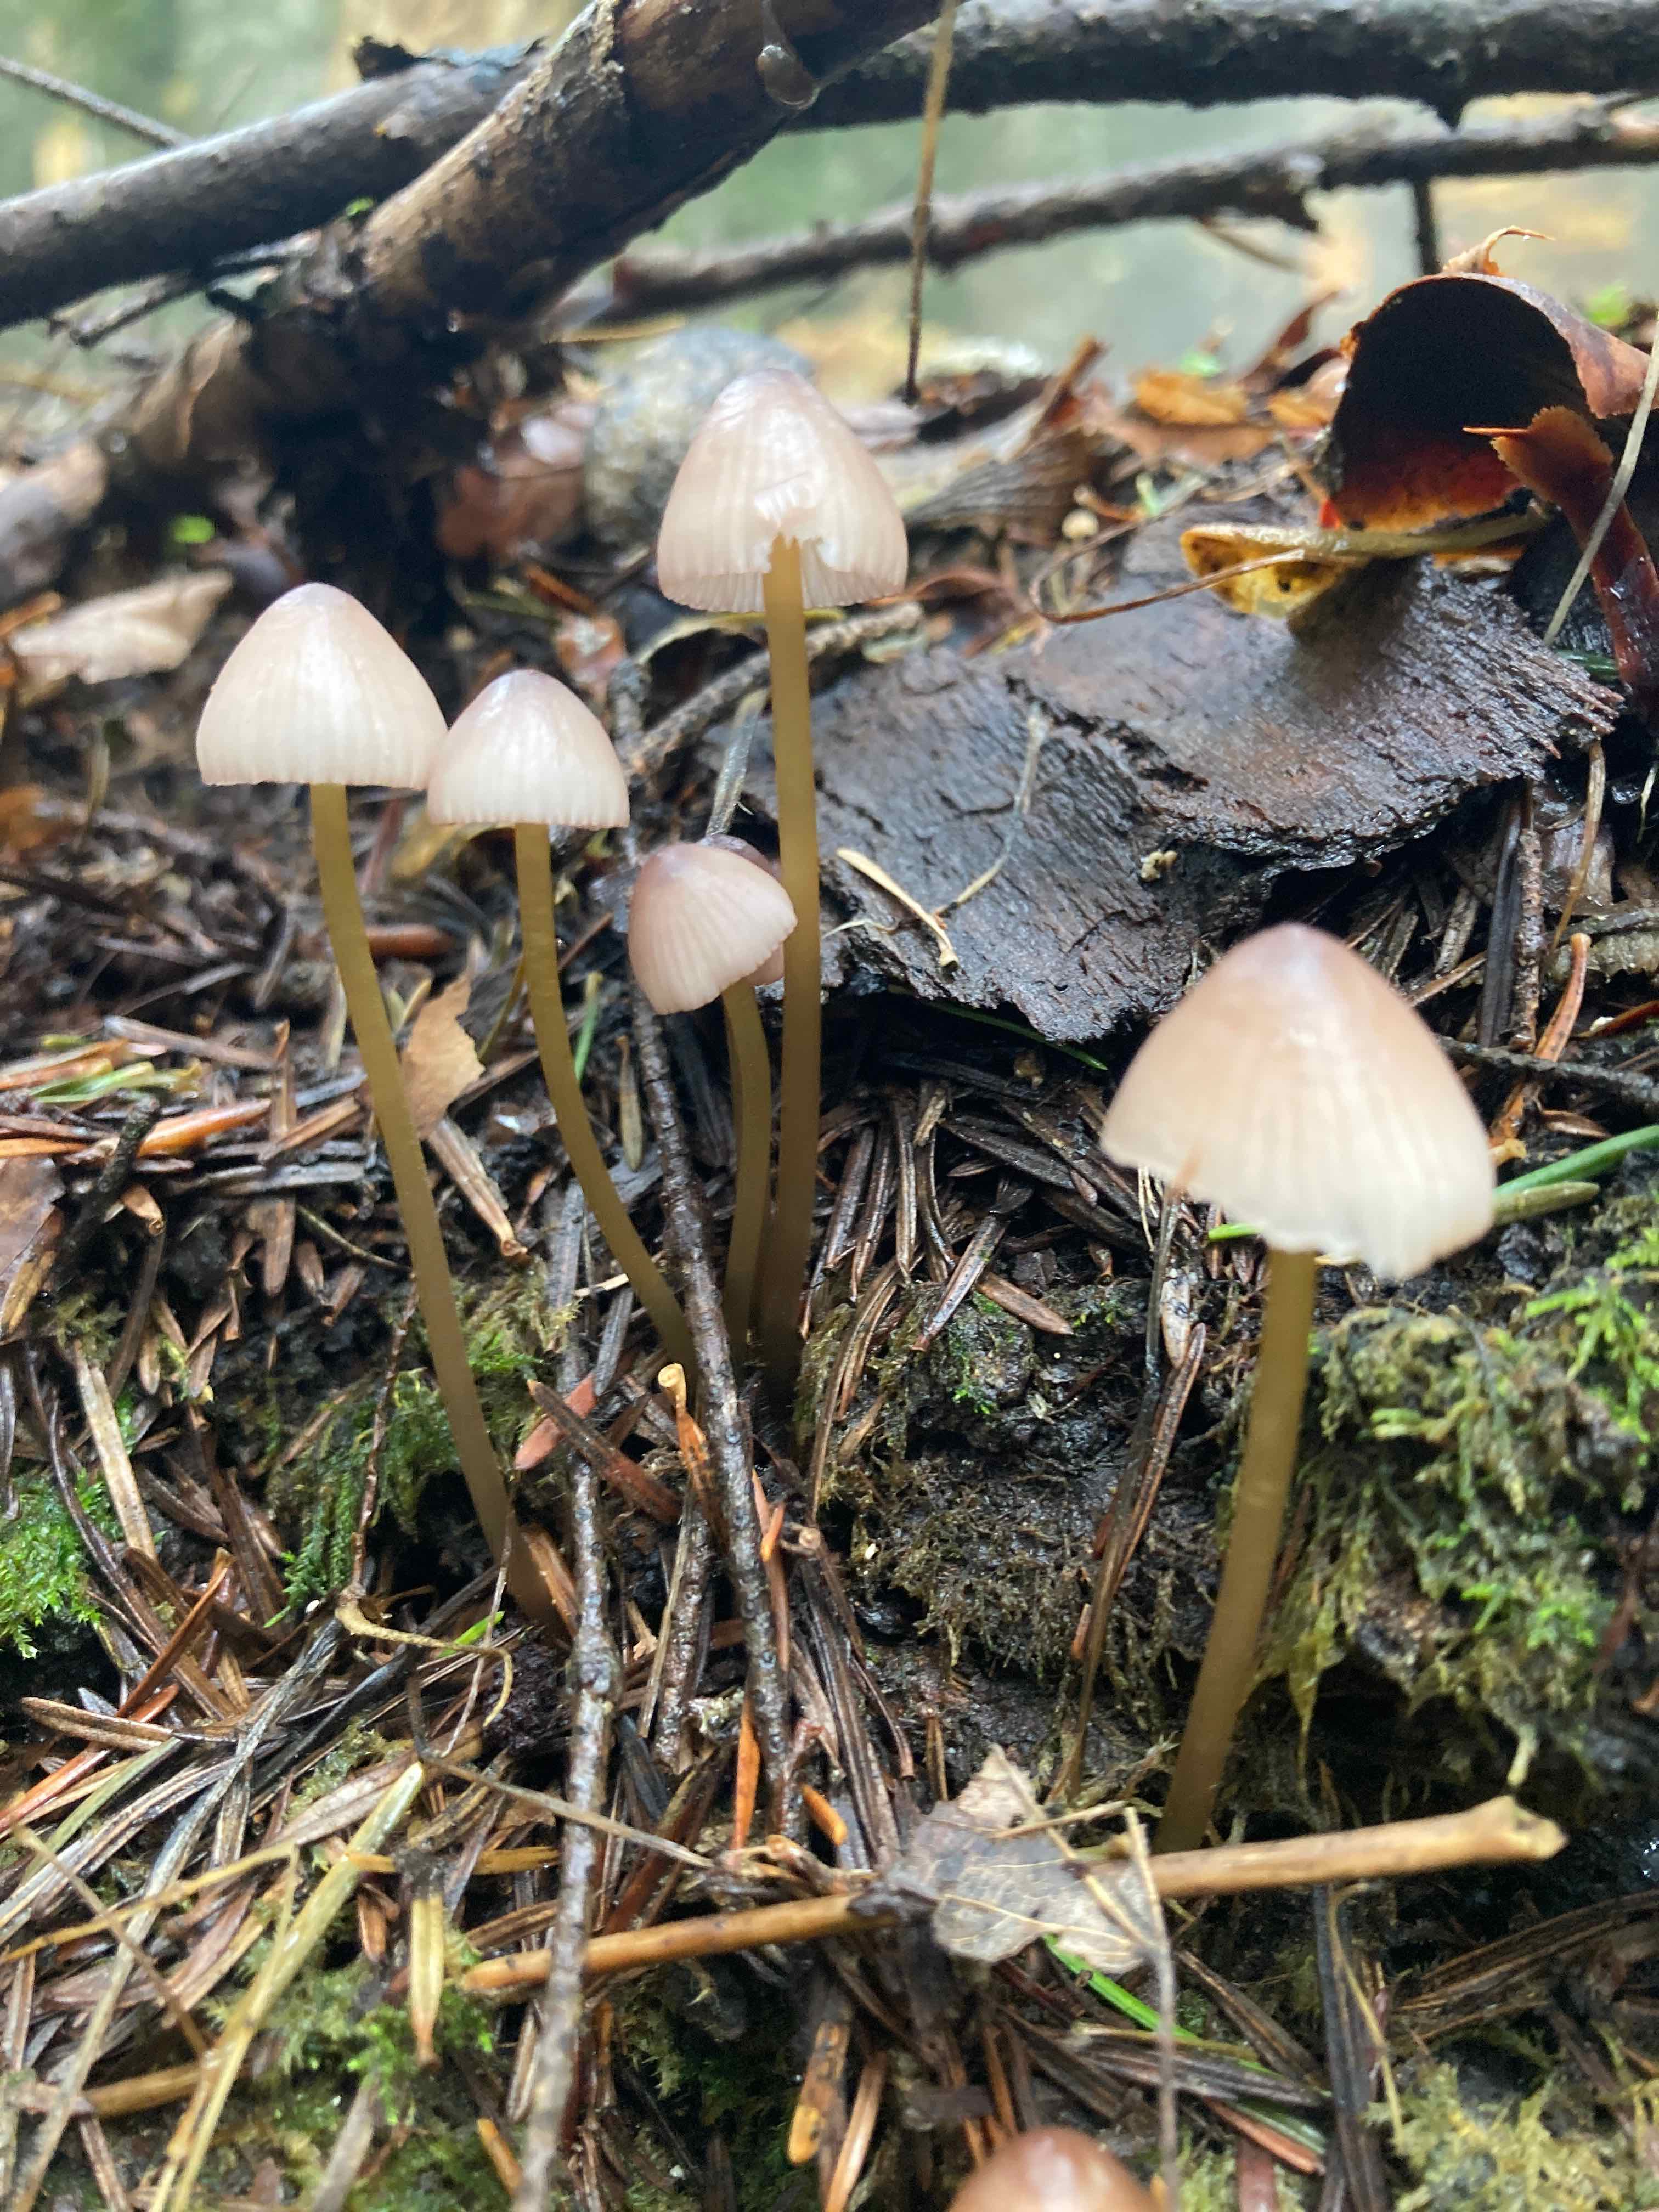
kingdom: Fungi
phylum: Basidiomycota
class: Agaricomycetes
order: Agaricales
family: Mycenaceae
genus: Mycena
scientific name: Mycena renati
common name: smuk huesvamp
